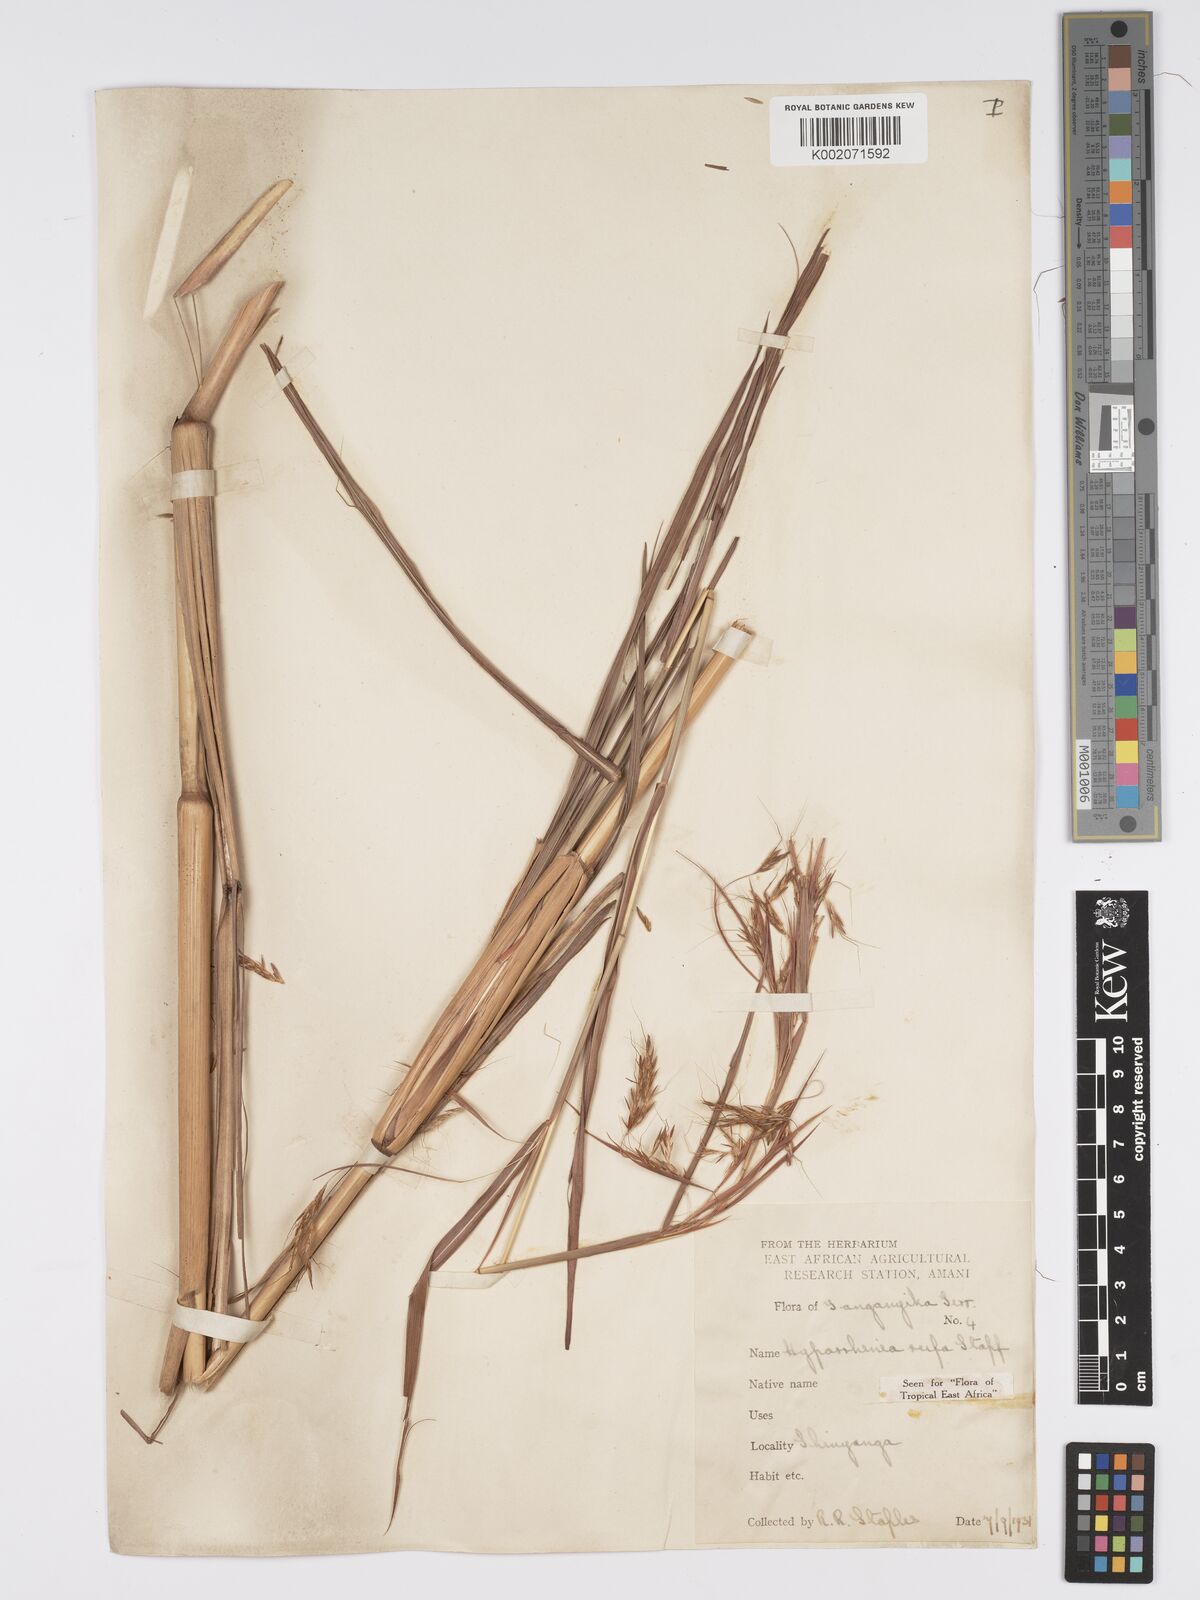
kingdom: Plantae
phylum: Tracheophyta
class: Liliopsida
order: Poales
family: Poaceae
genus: Hyparrhenia
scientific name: Hyparrhenia rufa
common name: Jaraguagrass
